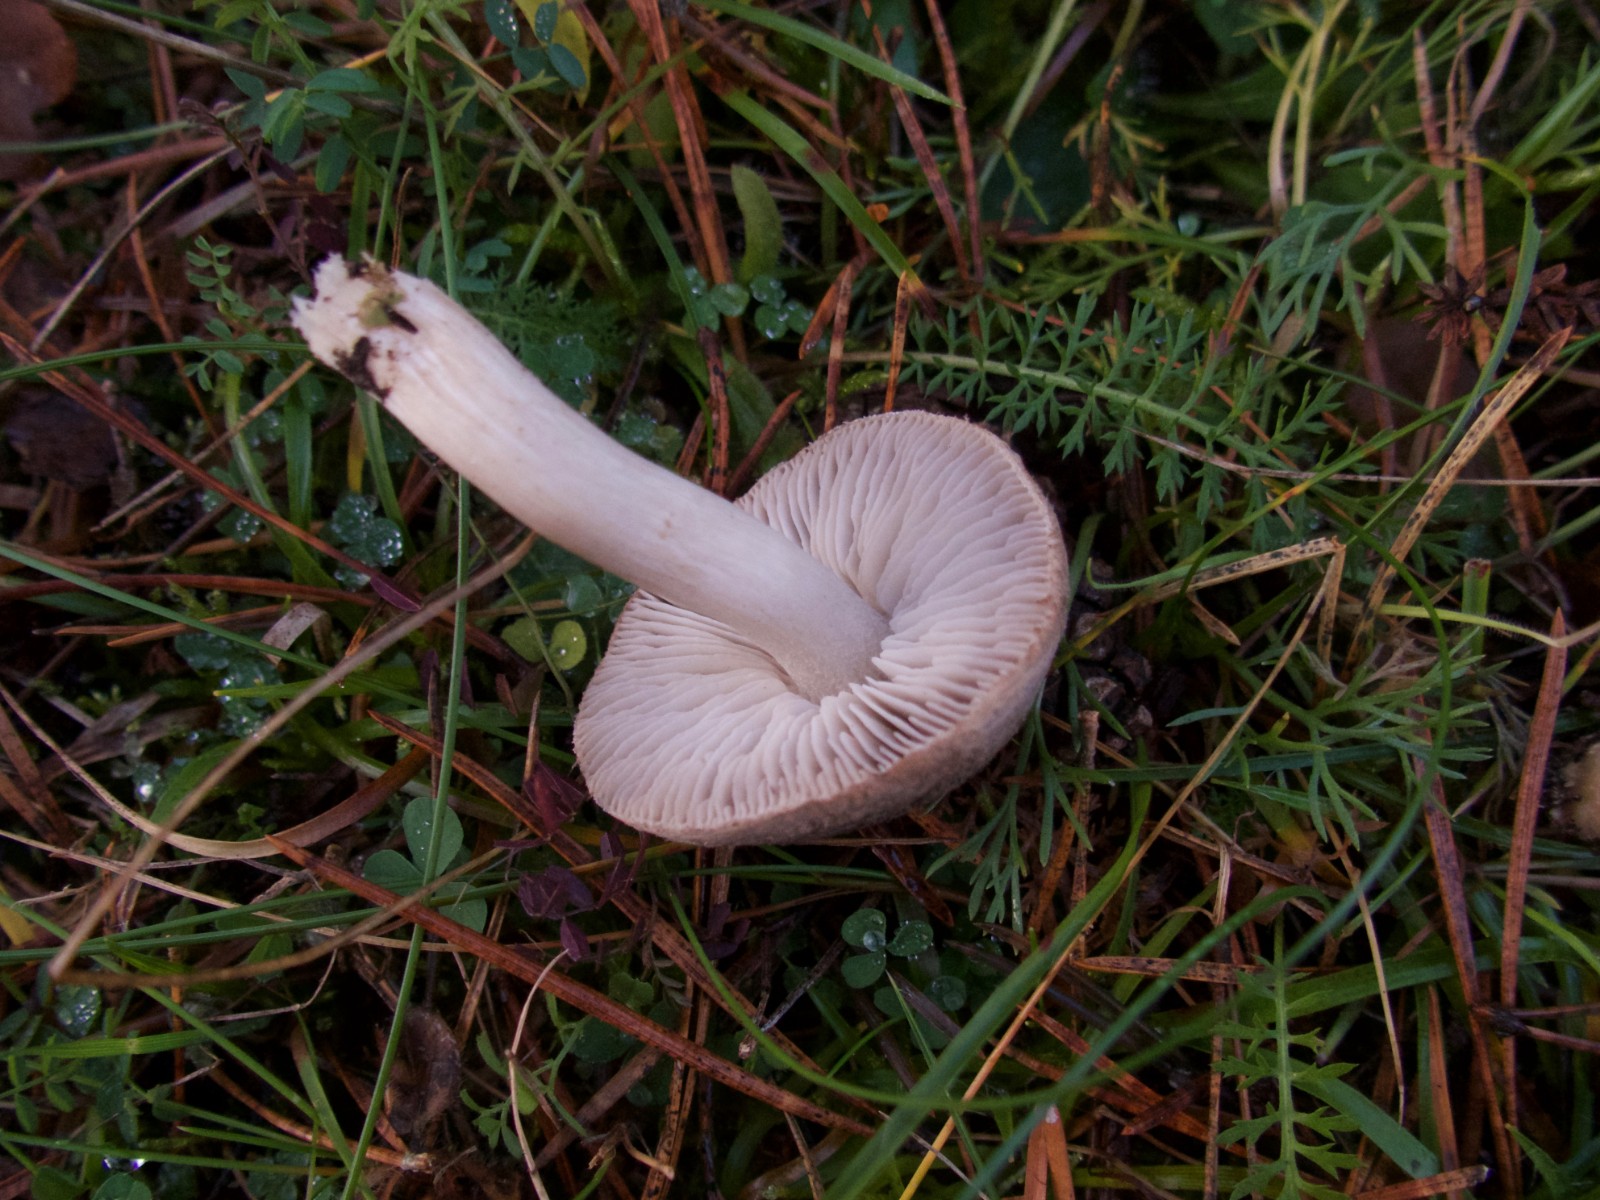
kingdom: Fungi
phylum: Basidiomycota
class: Agaricomycetes
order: Agaricales
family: Tricholomataceae
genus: Tricholoma
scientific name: Tricholoma terreum
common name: jordfarvet ridderhat
